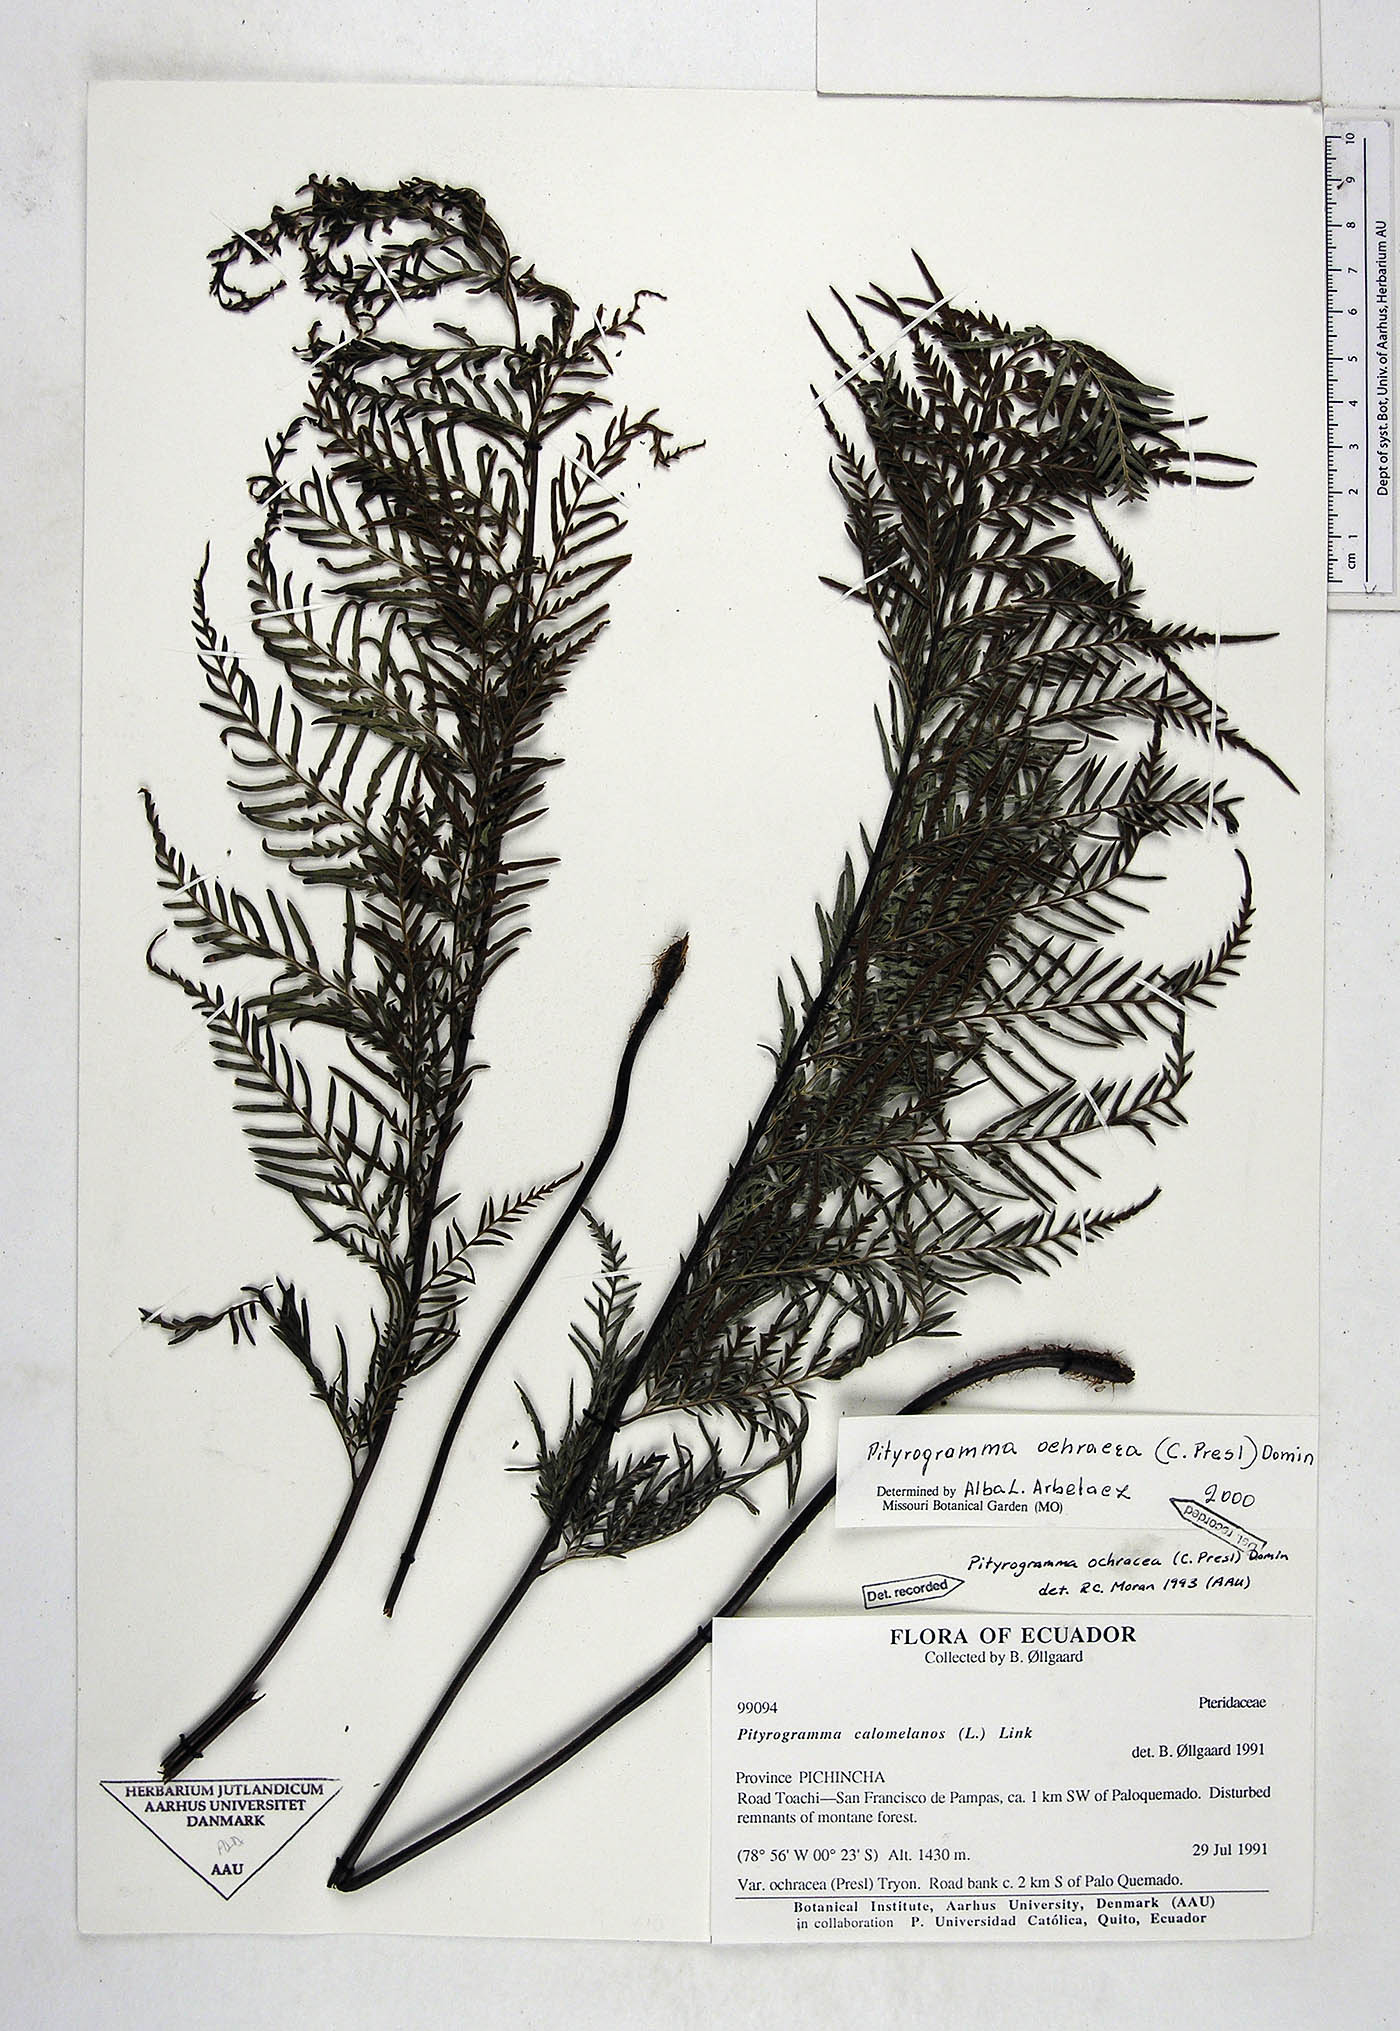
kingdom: Plantae
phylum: Tracheophyta
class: Polypodiopsida
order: Polypodiales
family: Pteridaceae
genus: Pityrogramma
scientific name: Pityrogramma ochracea
